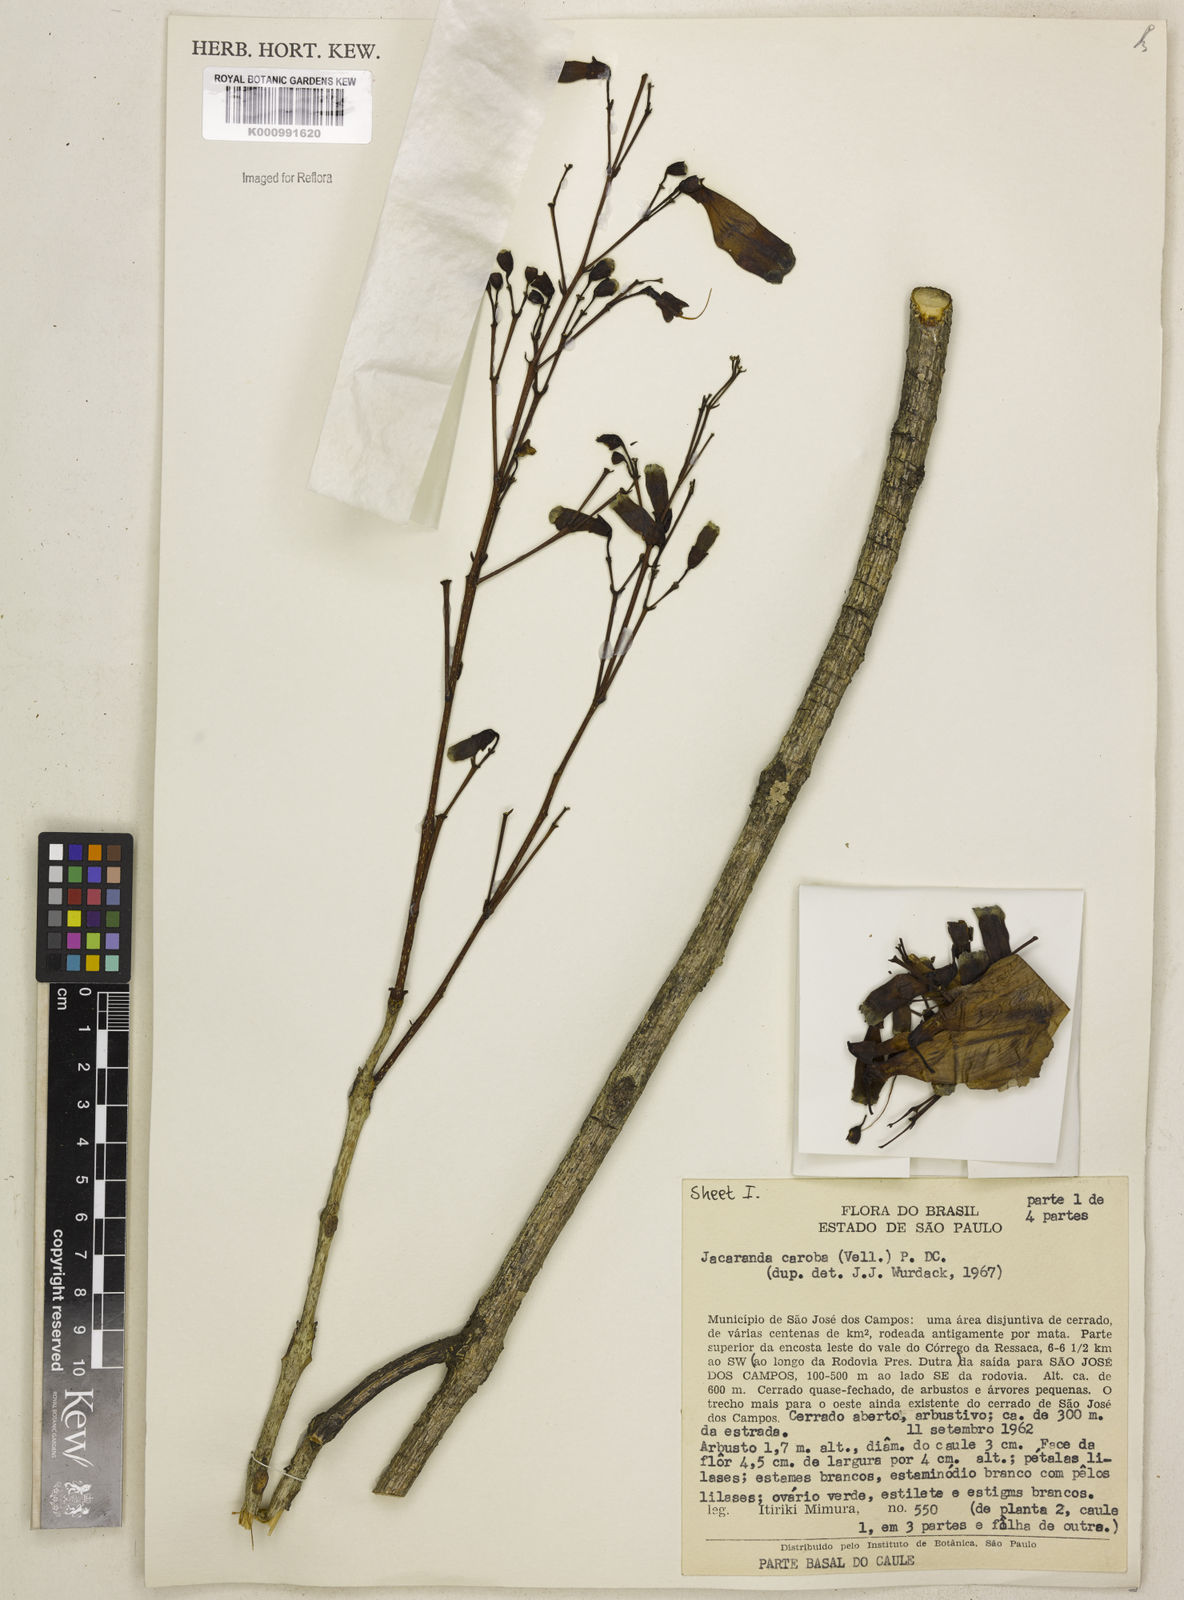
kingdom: Plantae
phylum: Tracheophyta
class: Magnoliopsida
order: Lamiales
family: Bignoniaceae
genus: Jacaranda
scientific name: Jacaranda caroba
